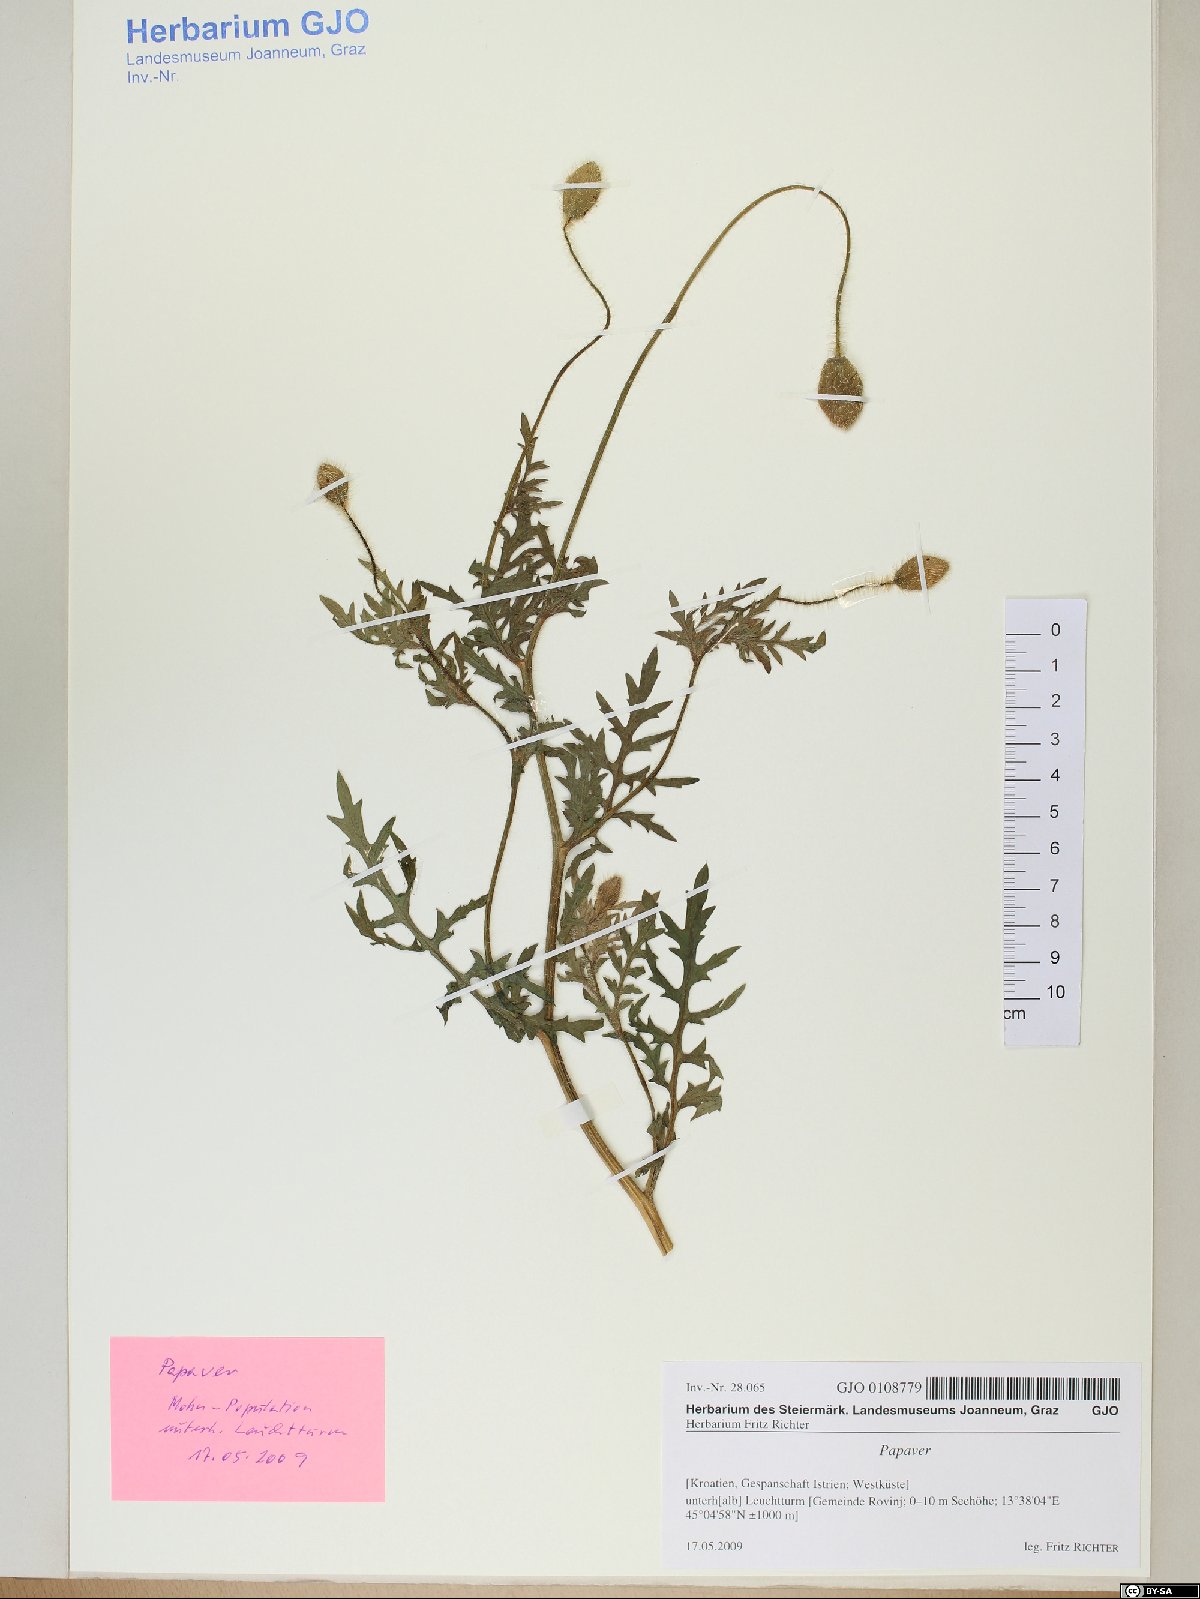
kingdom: Plantae
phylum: Tracheophyta
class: Magnoliopsida
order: Ranunculales
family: Papaveraceae
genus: Papaver
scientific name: Papaver
